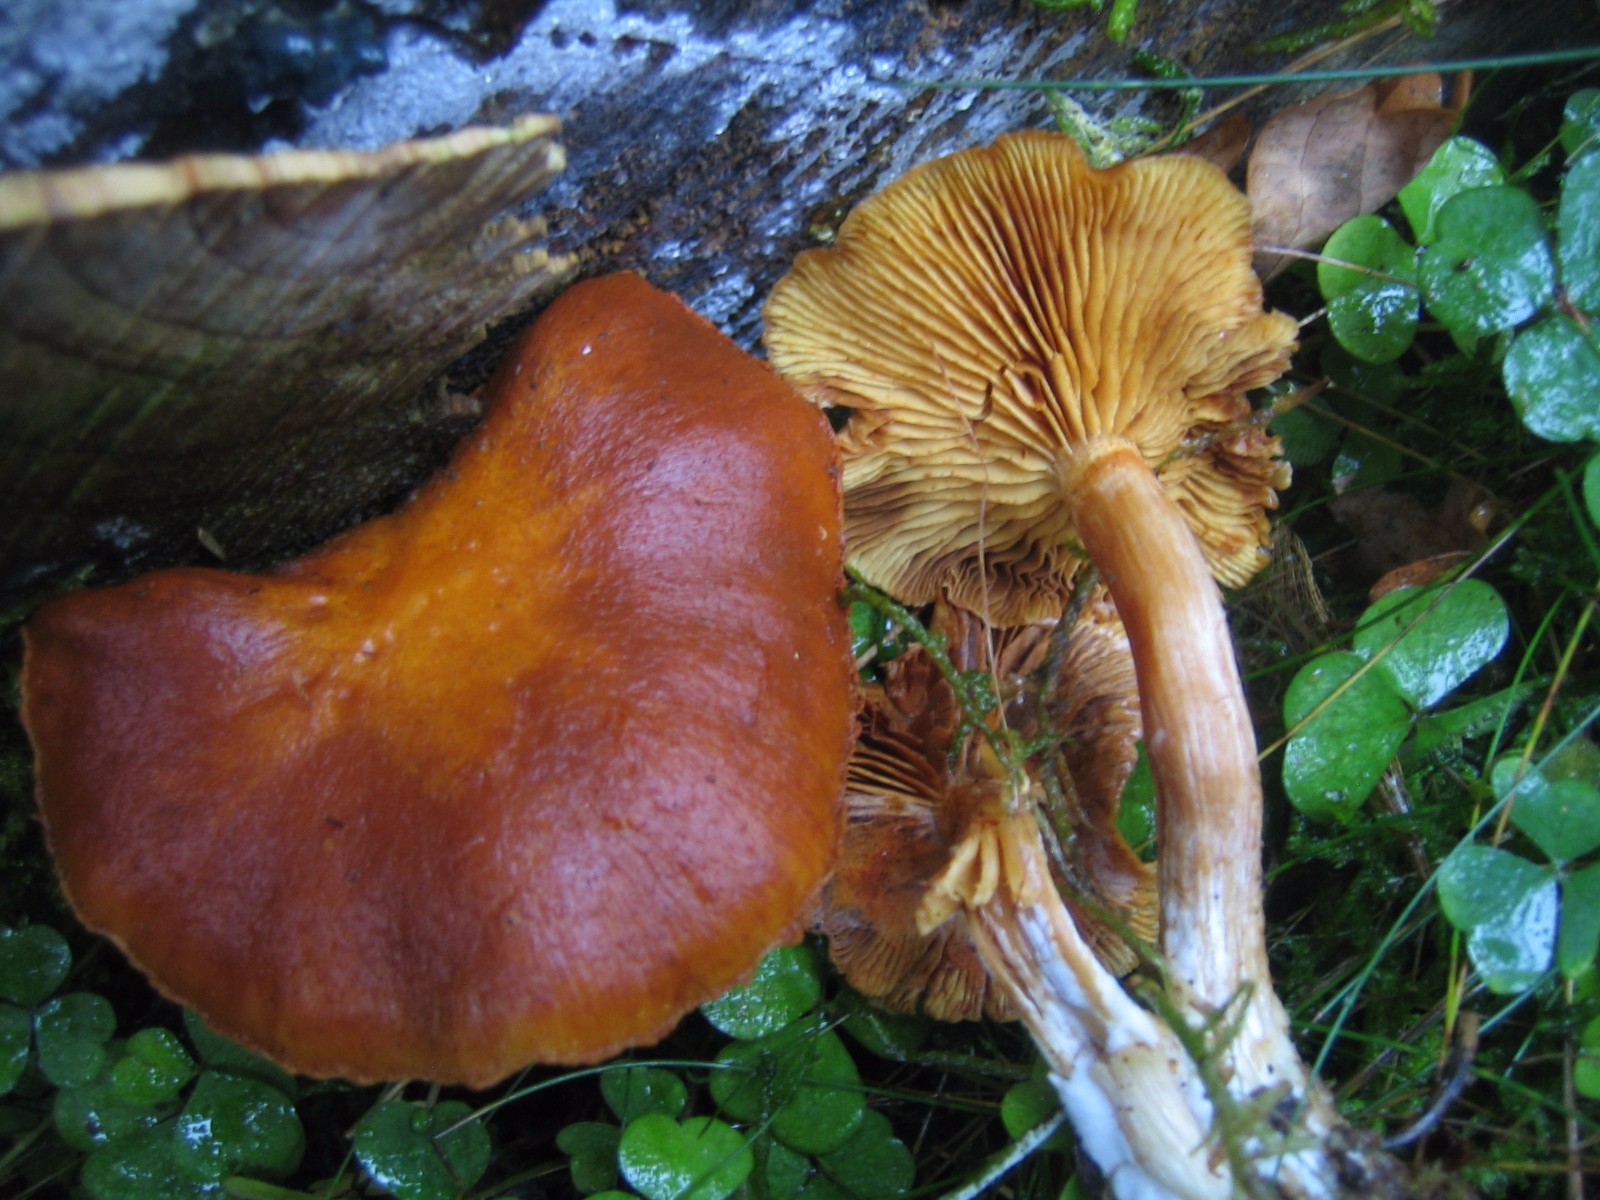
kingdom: Fungi
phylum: Basidiomycota
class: Agaricomycetes
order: Agaricales
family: Hymenogastraceae
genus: Gymnopilus
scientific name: Gymnopilus penetrans
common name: plettet flammehat
